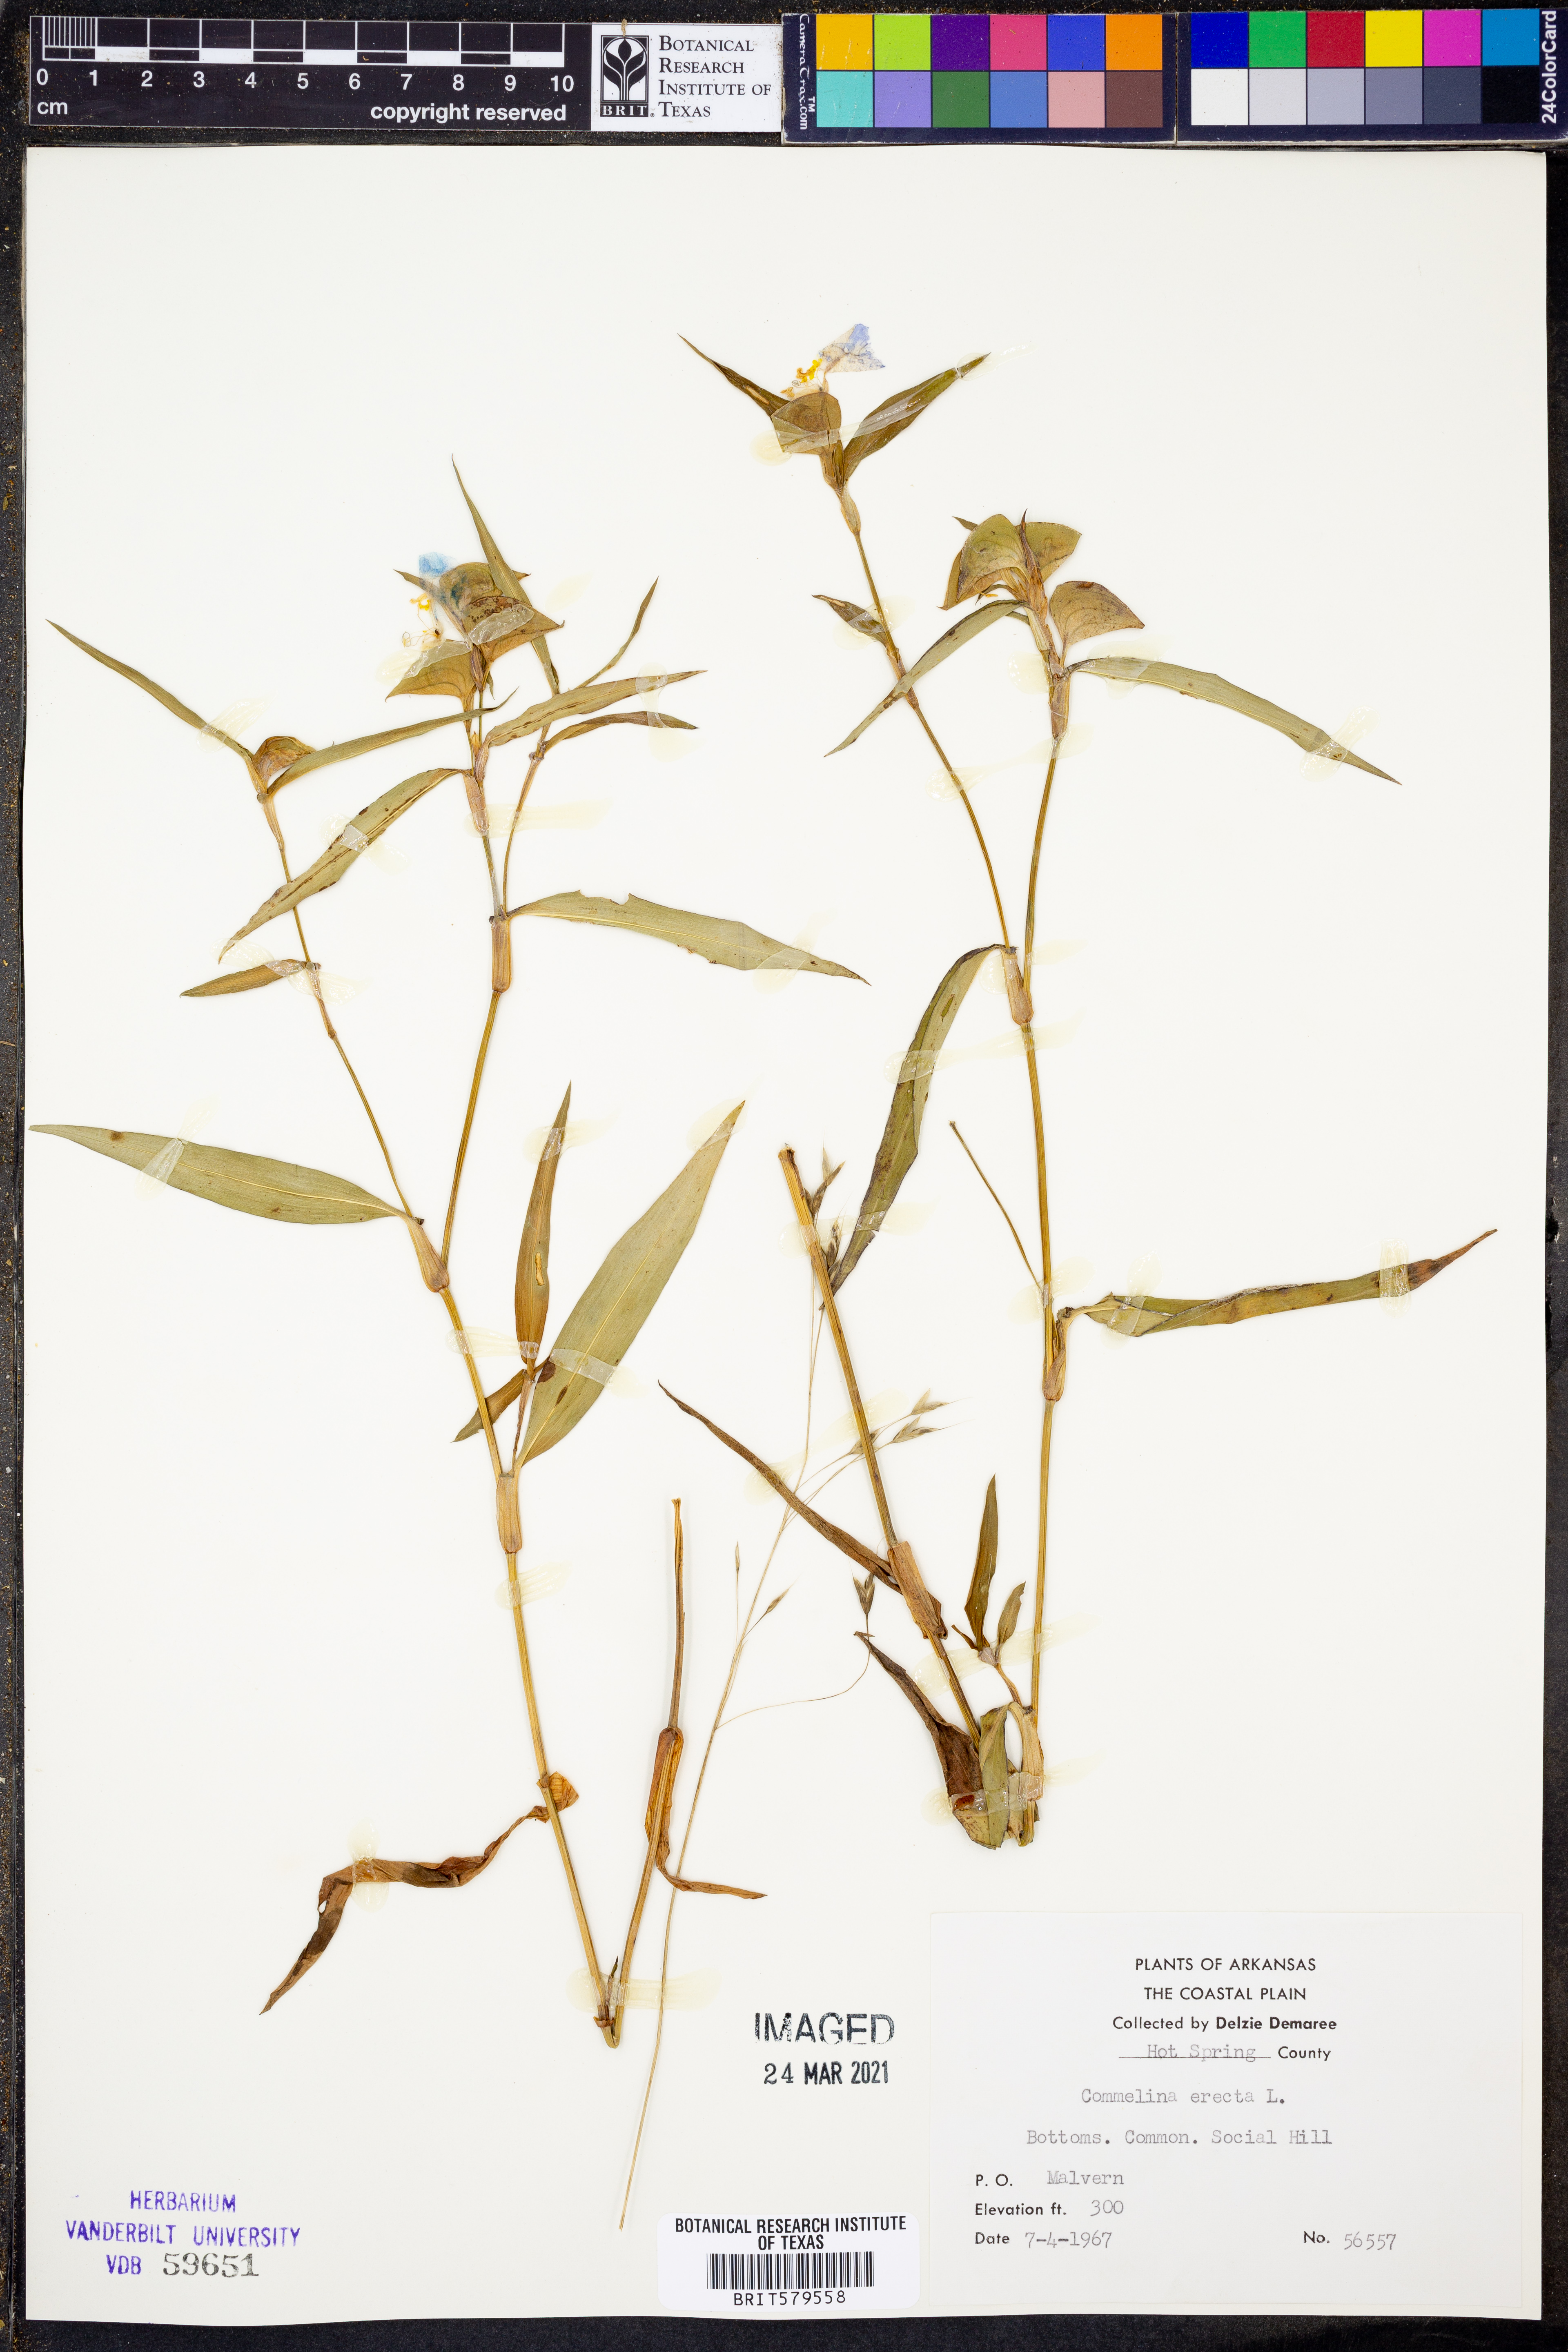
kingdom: Plantae
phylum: Tracheophyta
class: Liliopsida
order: Commelinales
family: Commelinaceae
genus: Commelina
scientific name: Commelina erecta
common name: Blousel blommetjie
